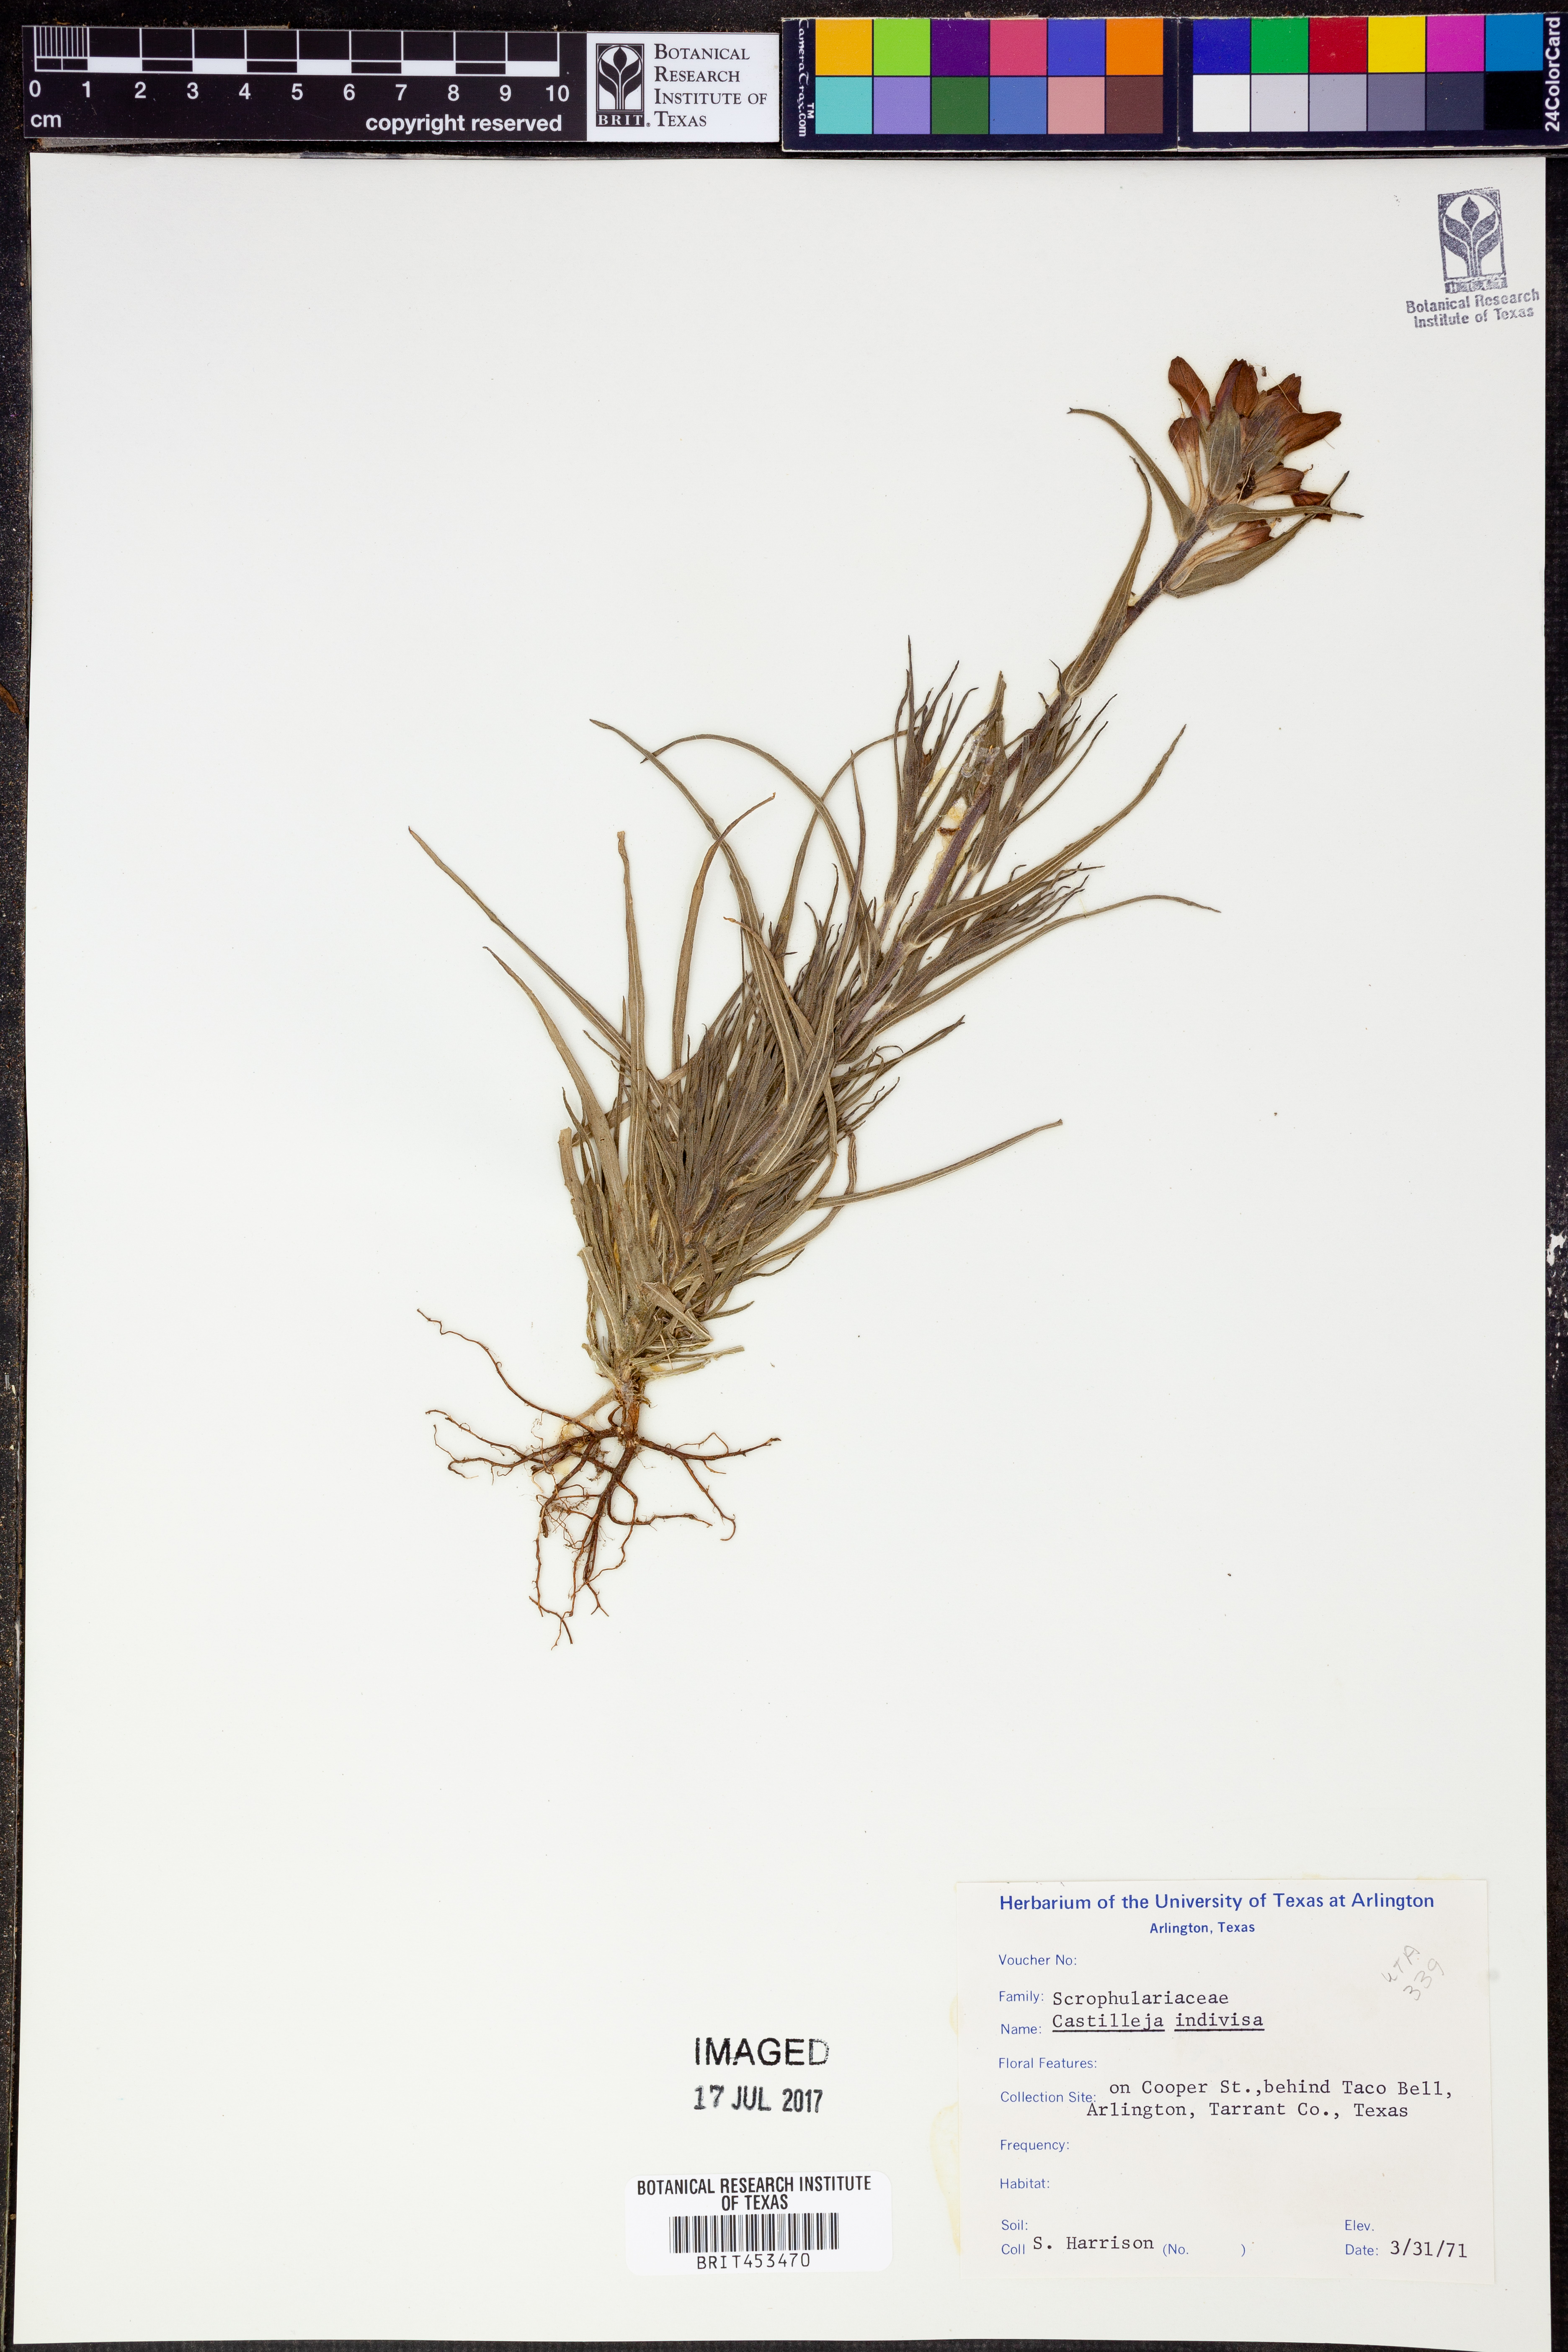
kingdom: Plantae
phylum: Tracheophyta
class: Magnoliopsida
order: Lamiales
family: Orobanchaceae
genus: Castilleja
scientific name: Castilleja indivisa
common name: Texas paintbrush
